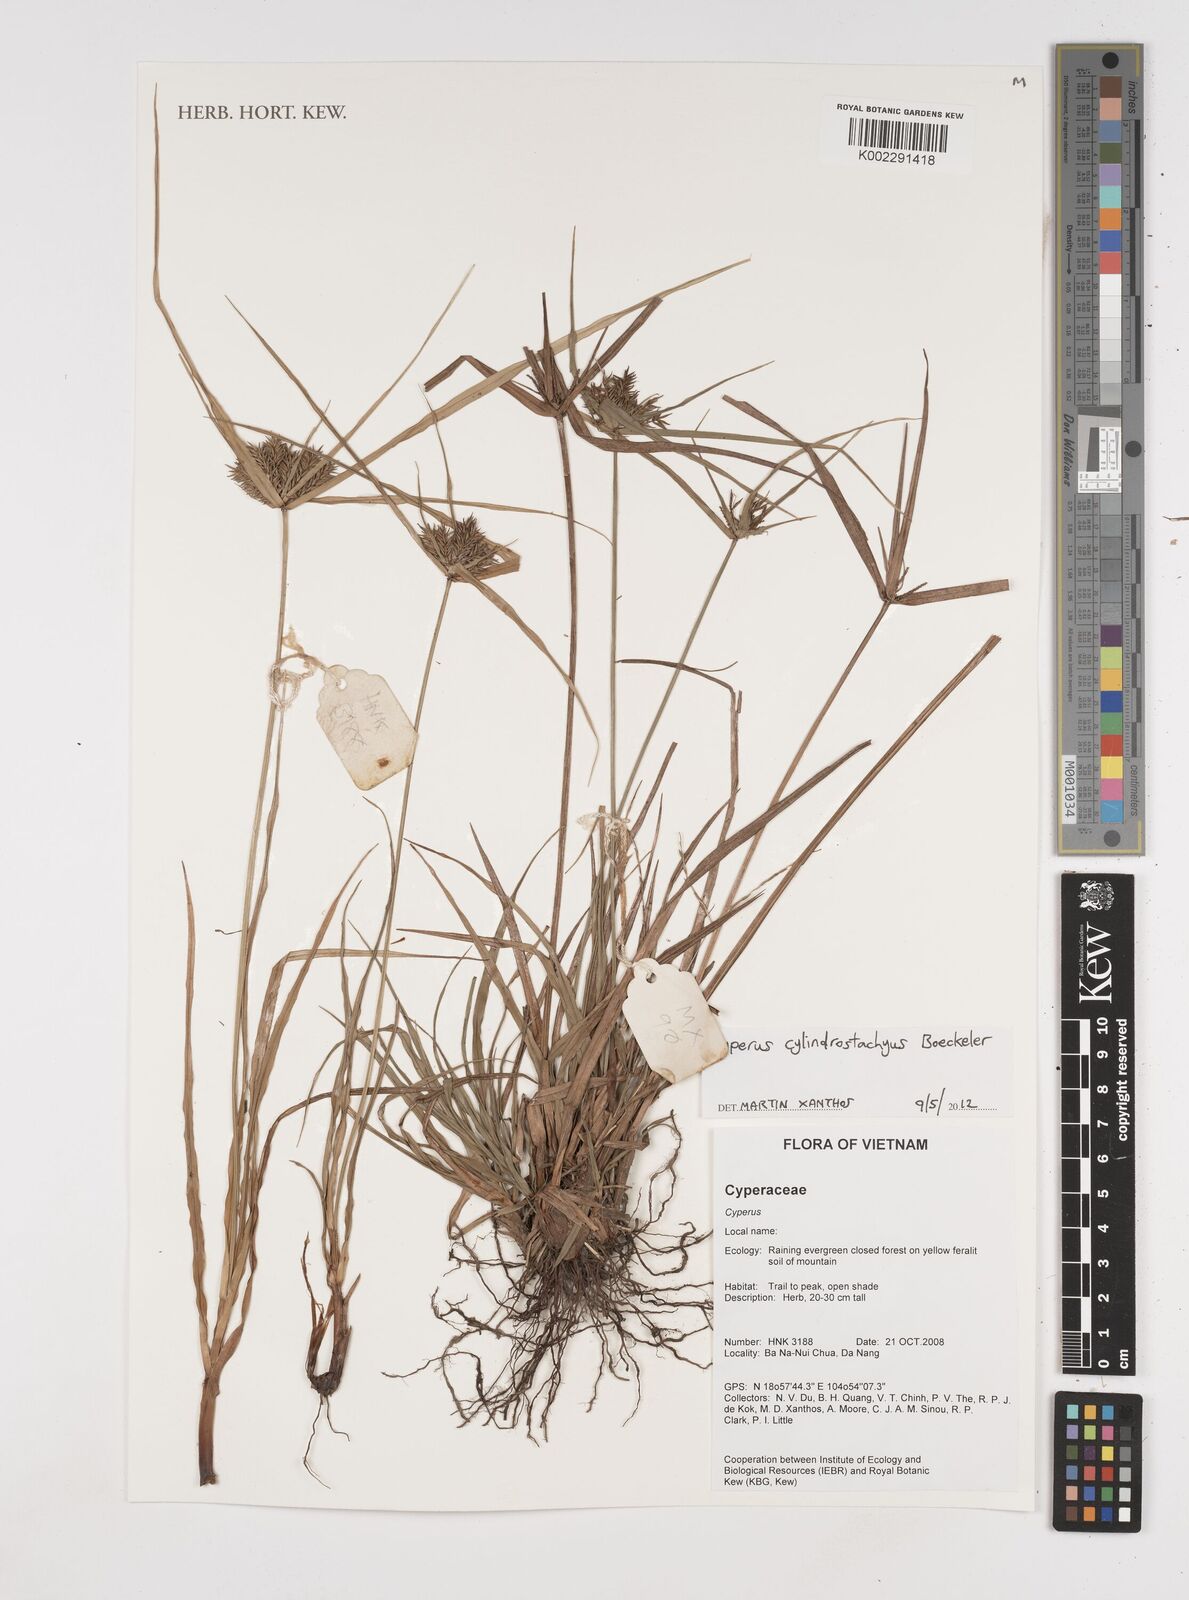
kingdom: Plantae
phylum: Tracheophyta
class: Liliopsida
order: Poales
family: Cyperaceae
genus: Cyperus
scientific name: Cyperus cyperoides
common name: Pacific island flat sedge
